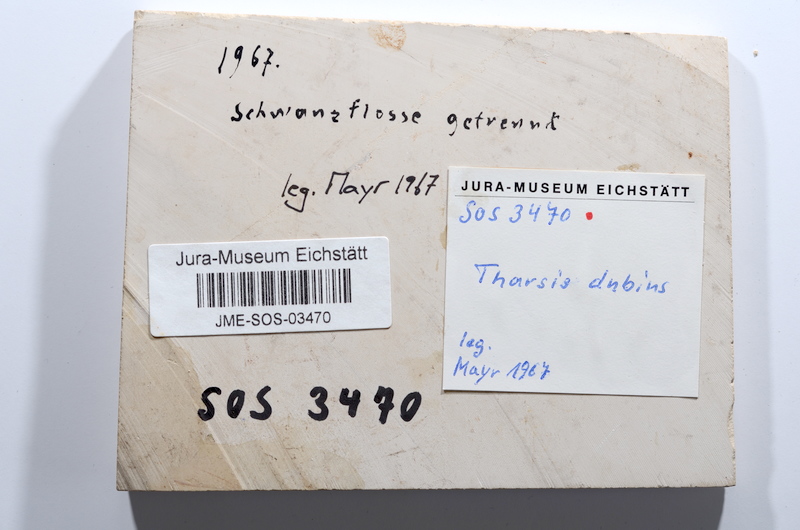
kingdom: Animalia
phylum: Chordata
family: Ascalaboidae
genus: Tharsis
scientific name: Tharsis dubius
